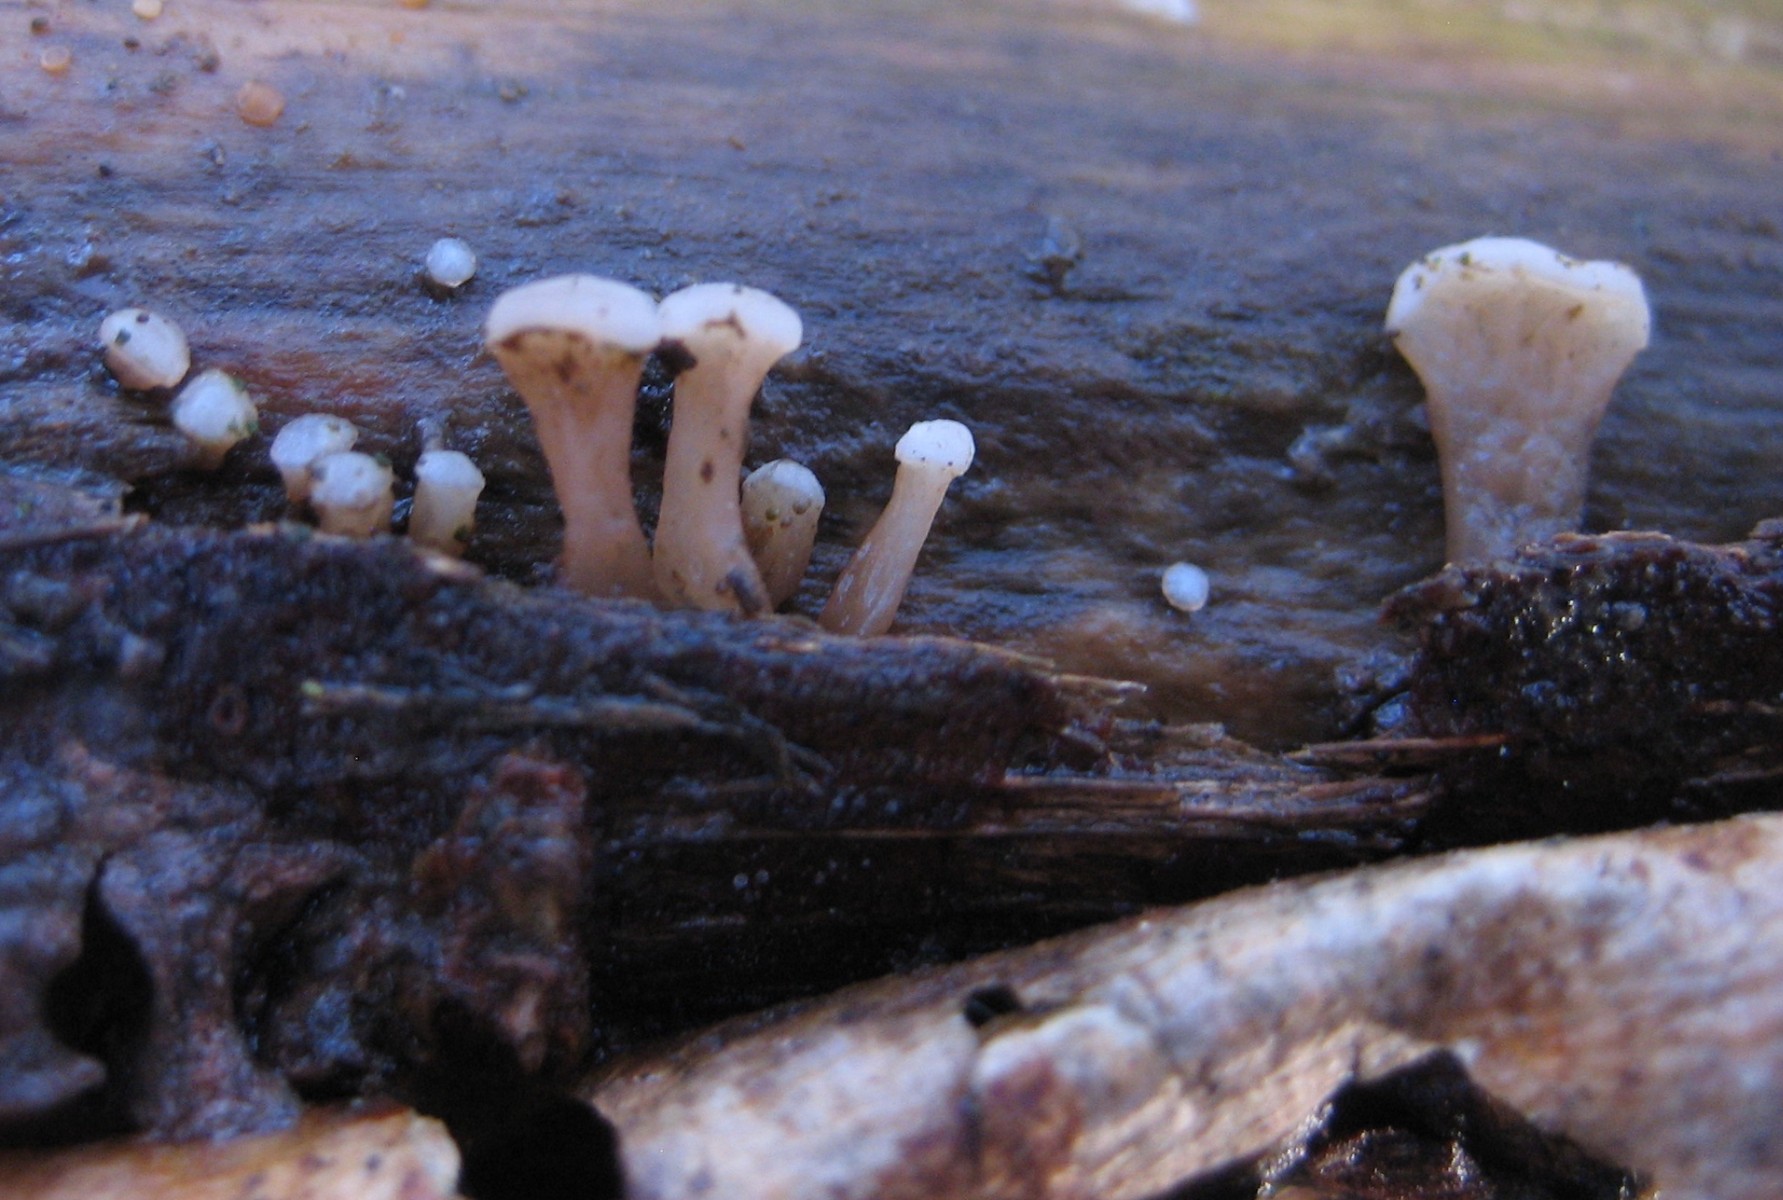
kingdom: Fungi
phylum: Ascomycota
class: Leotiomycetes
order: Helotiales
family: Gelatinodiscaceae
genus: Ascocoryne
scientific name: Ascocoryne albida
